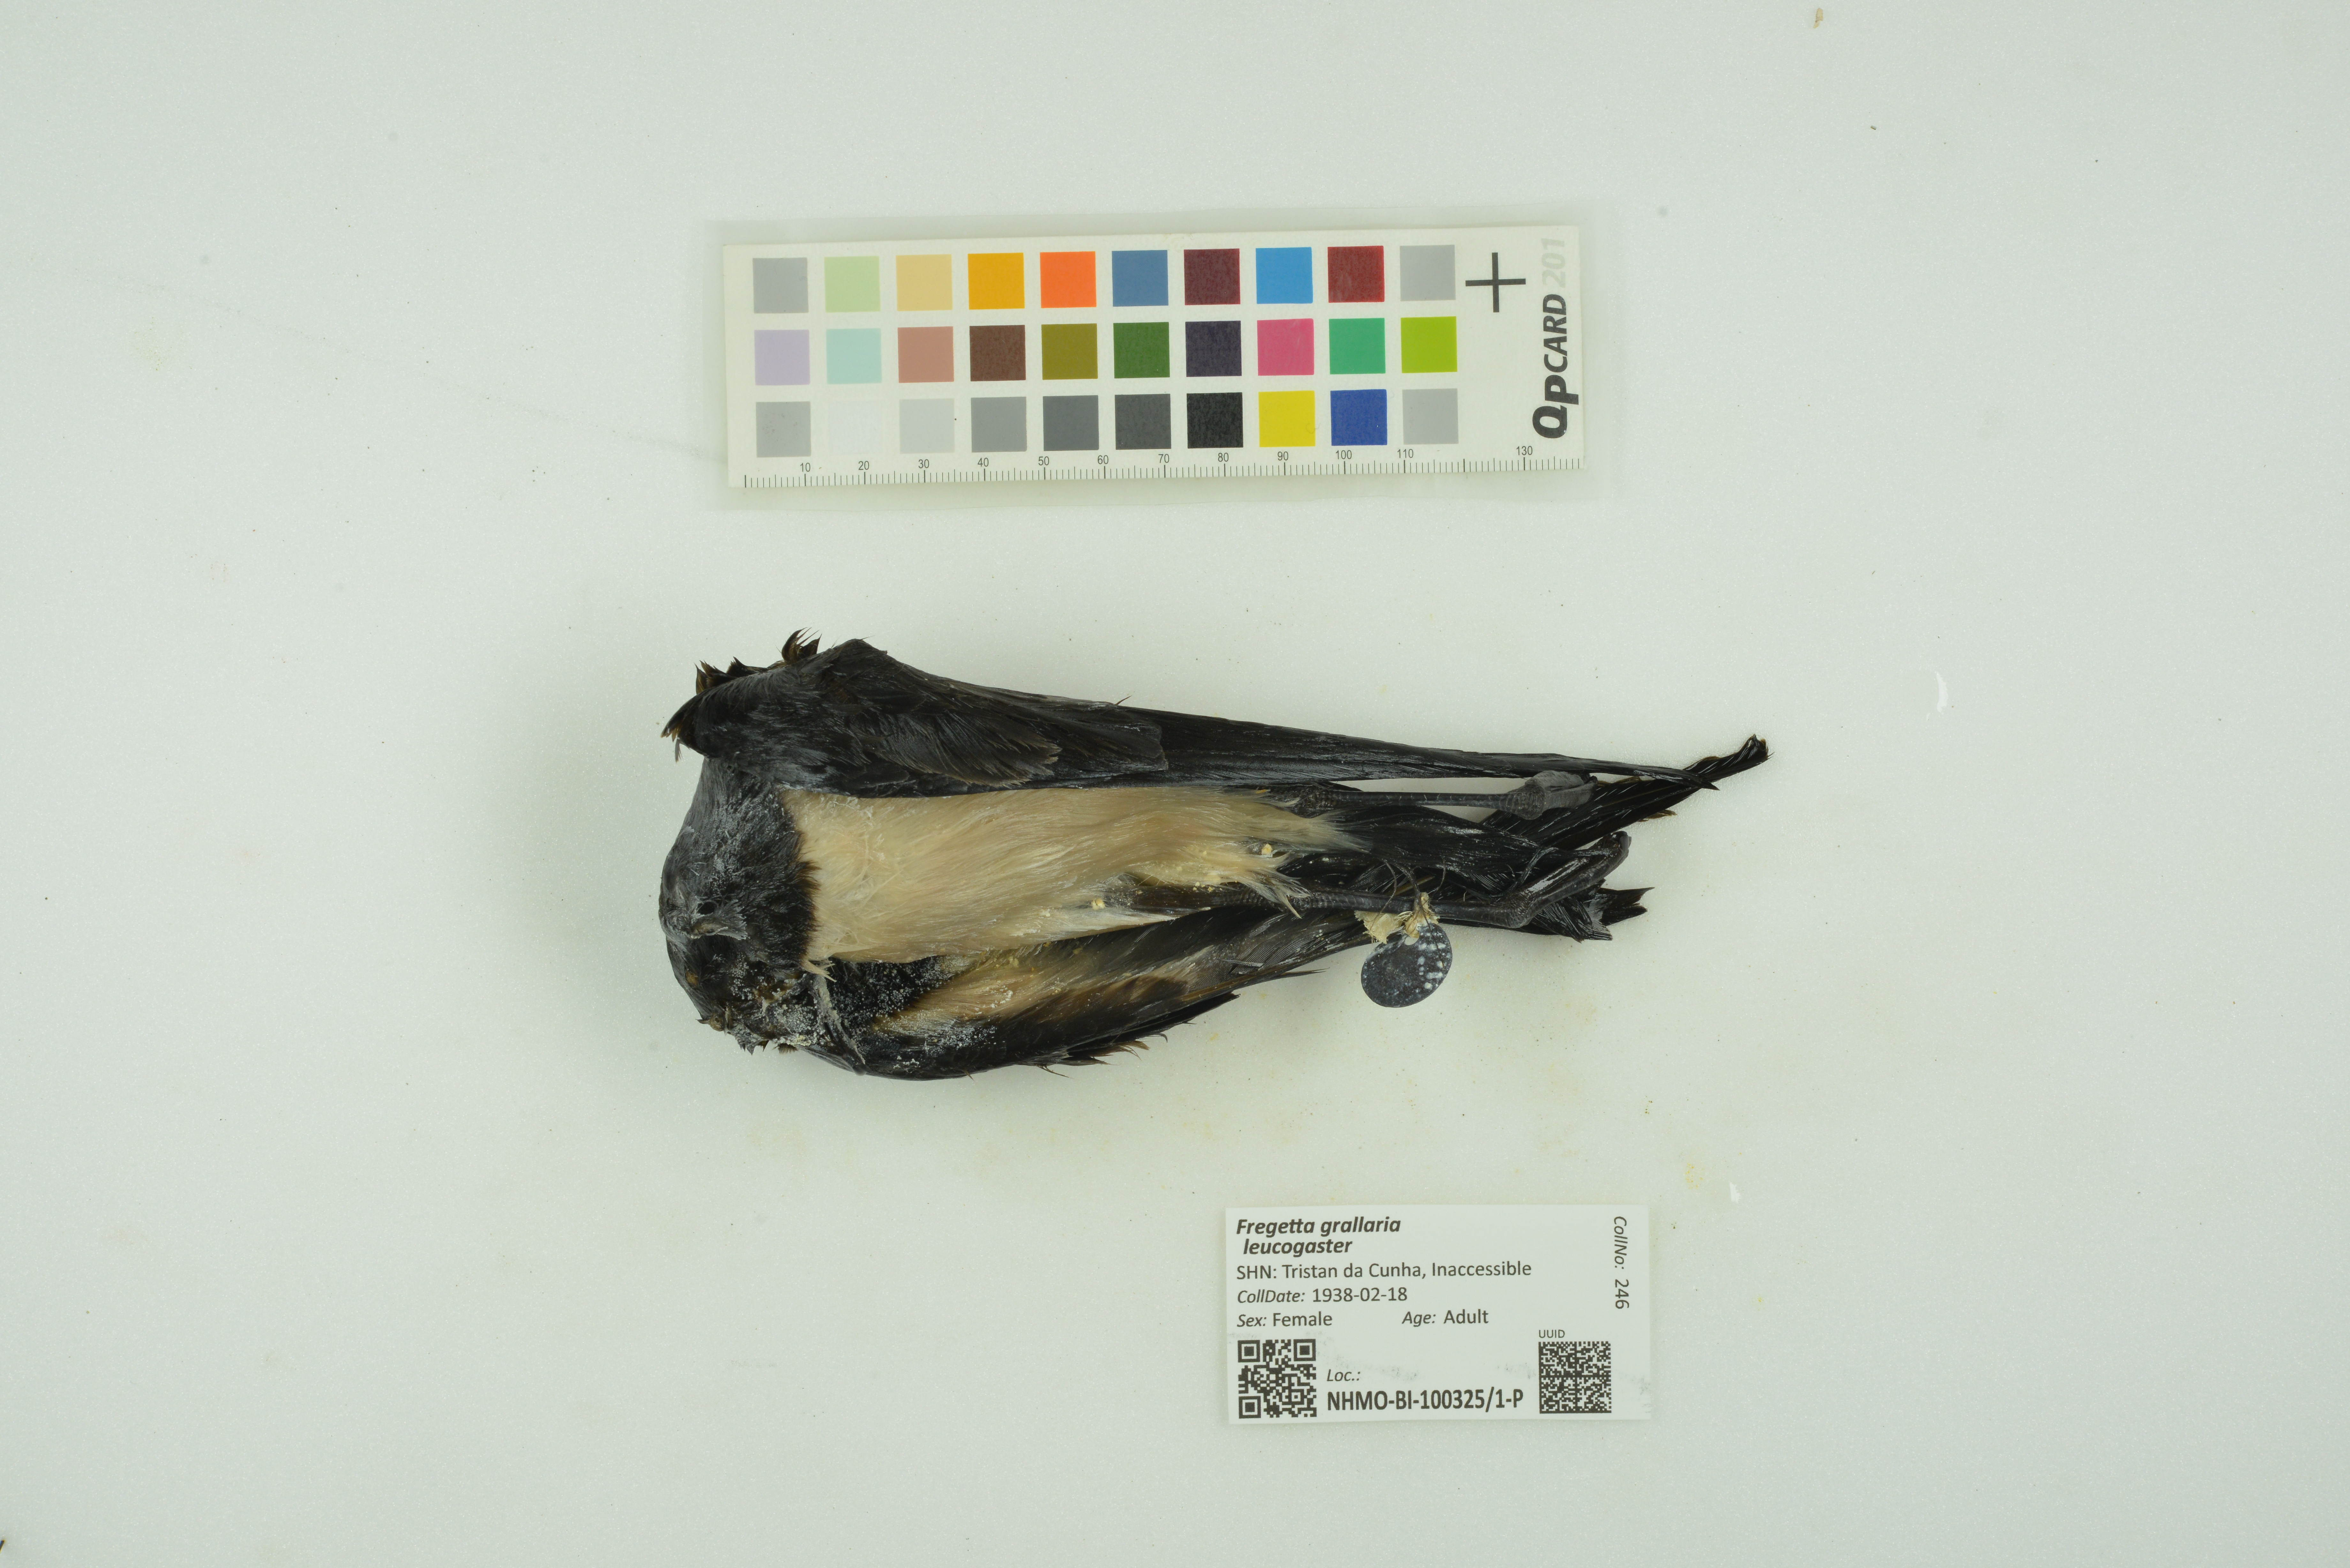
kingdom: Animalia
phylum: Chordata
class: Aves
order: Procellariiformes
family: Hydrobatidae
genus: Fregetta
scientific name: Fregetta grallaria
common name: White-bellied storm-petrel
